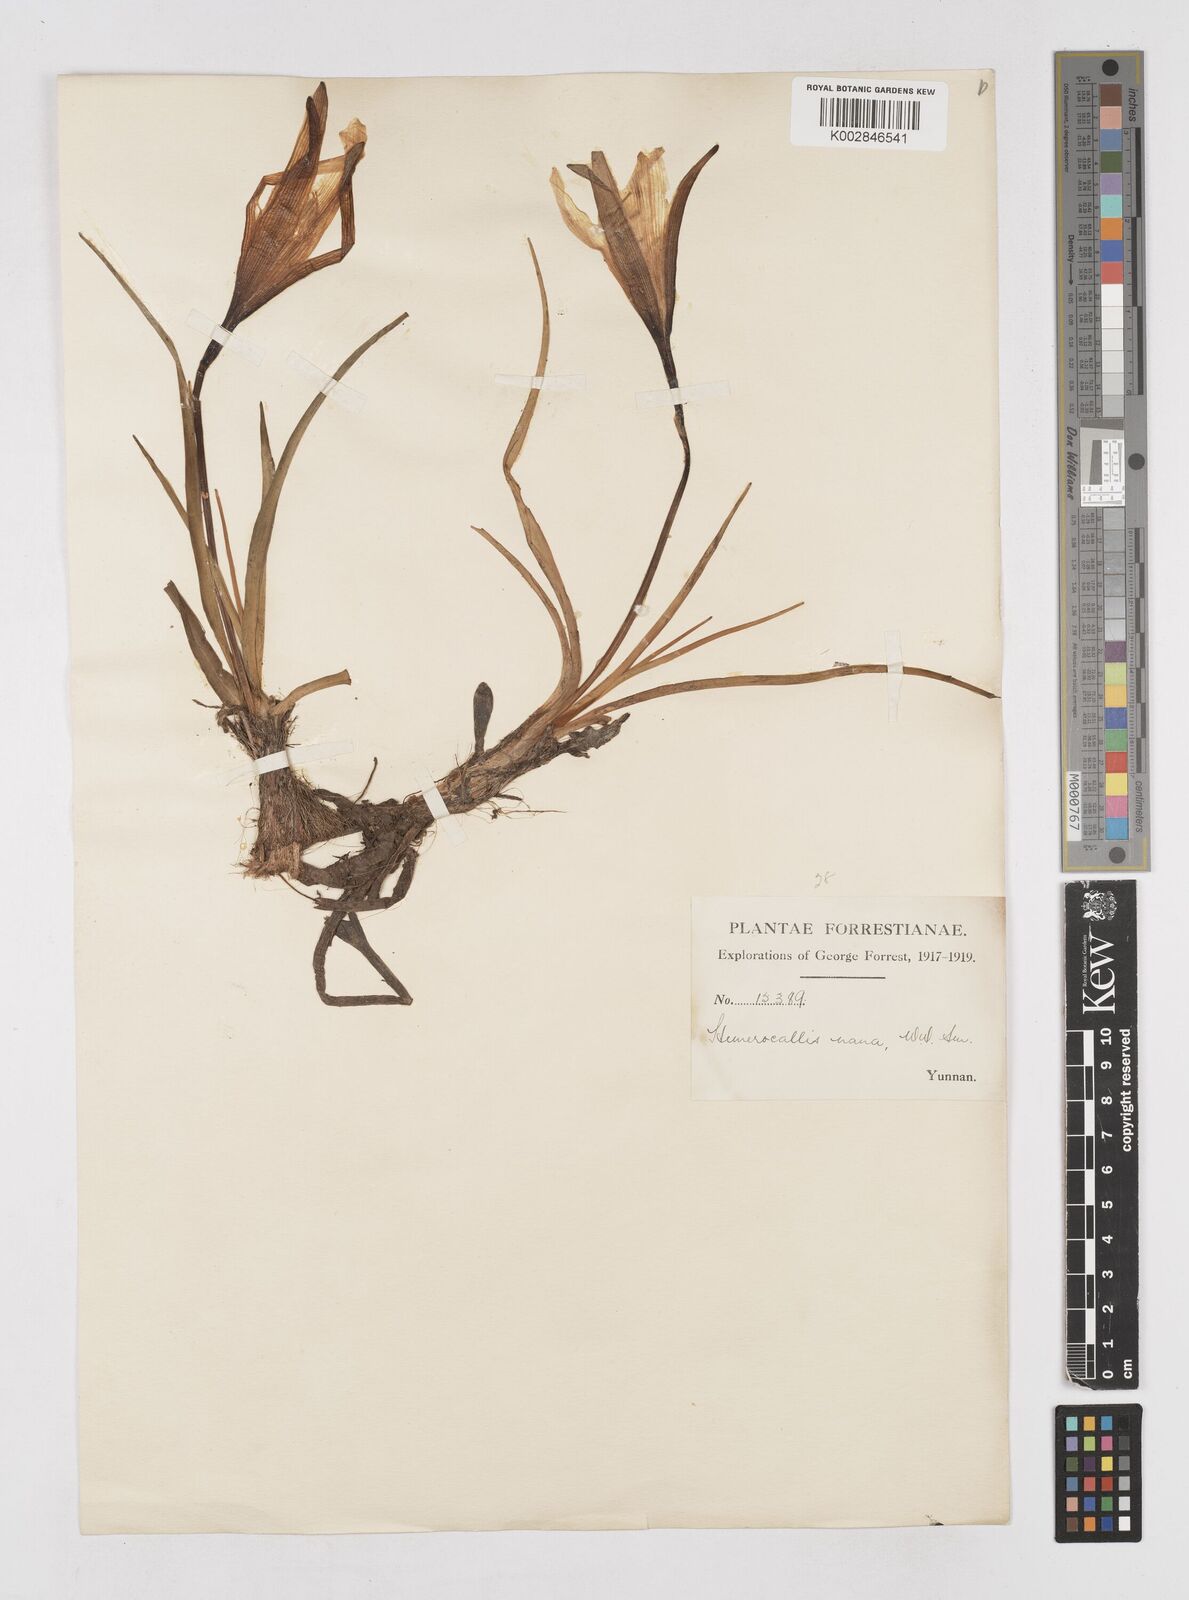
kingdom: Plantae
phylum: Tracheophyta
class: Liliopsida
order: Asparagales
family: Asphodelaceae
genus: Hemerocallis
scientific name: Hemerocallis nana
